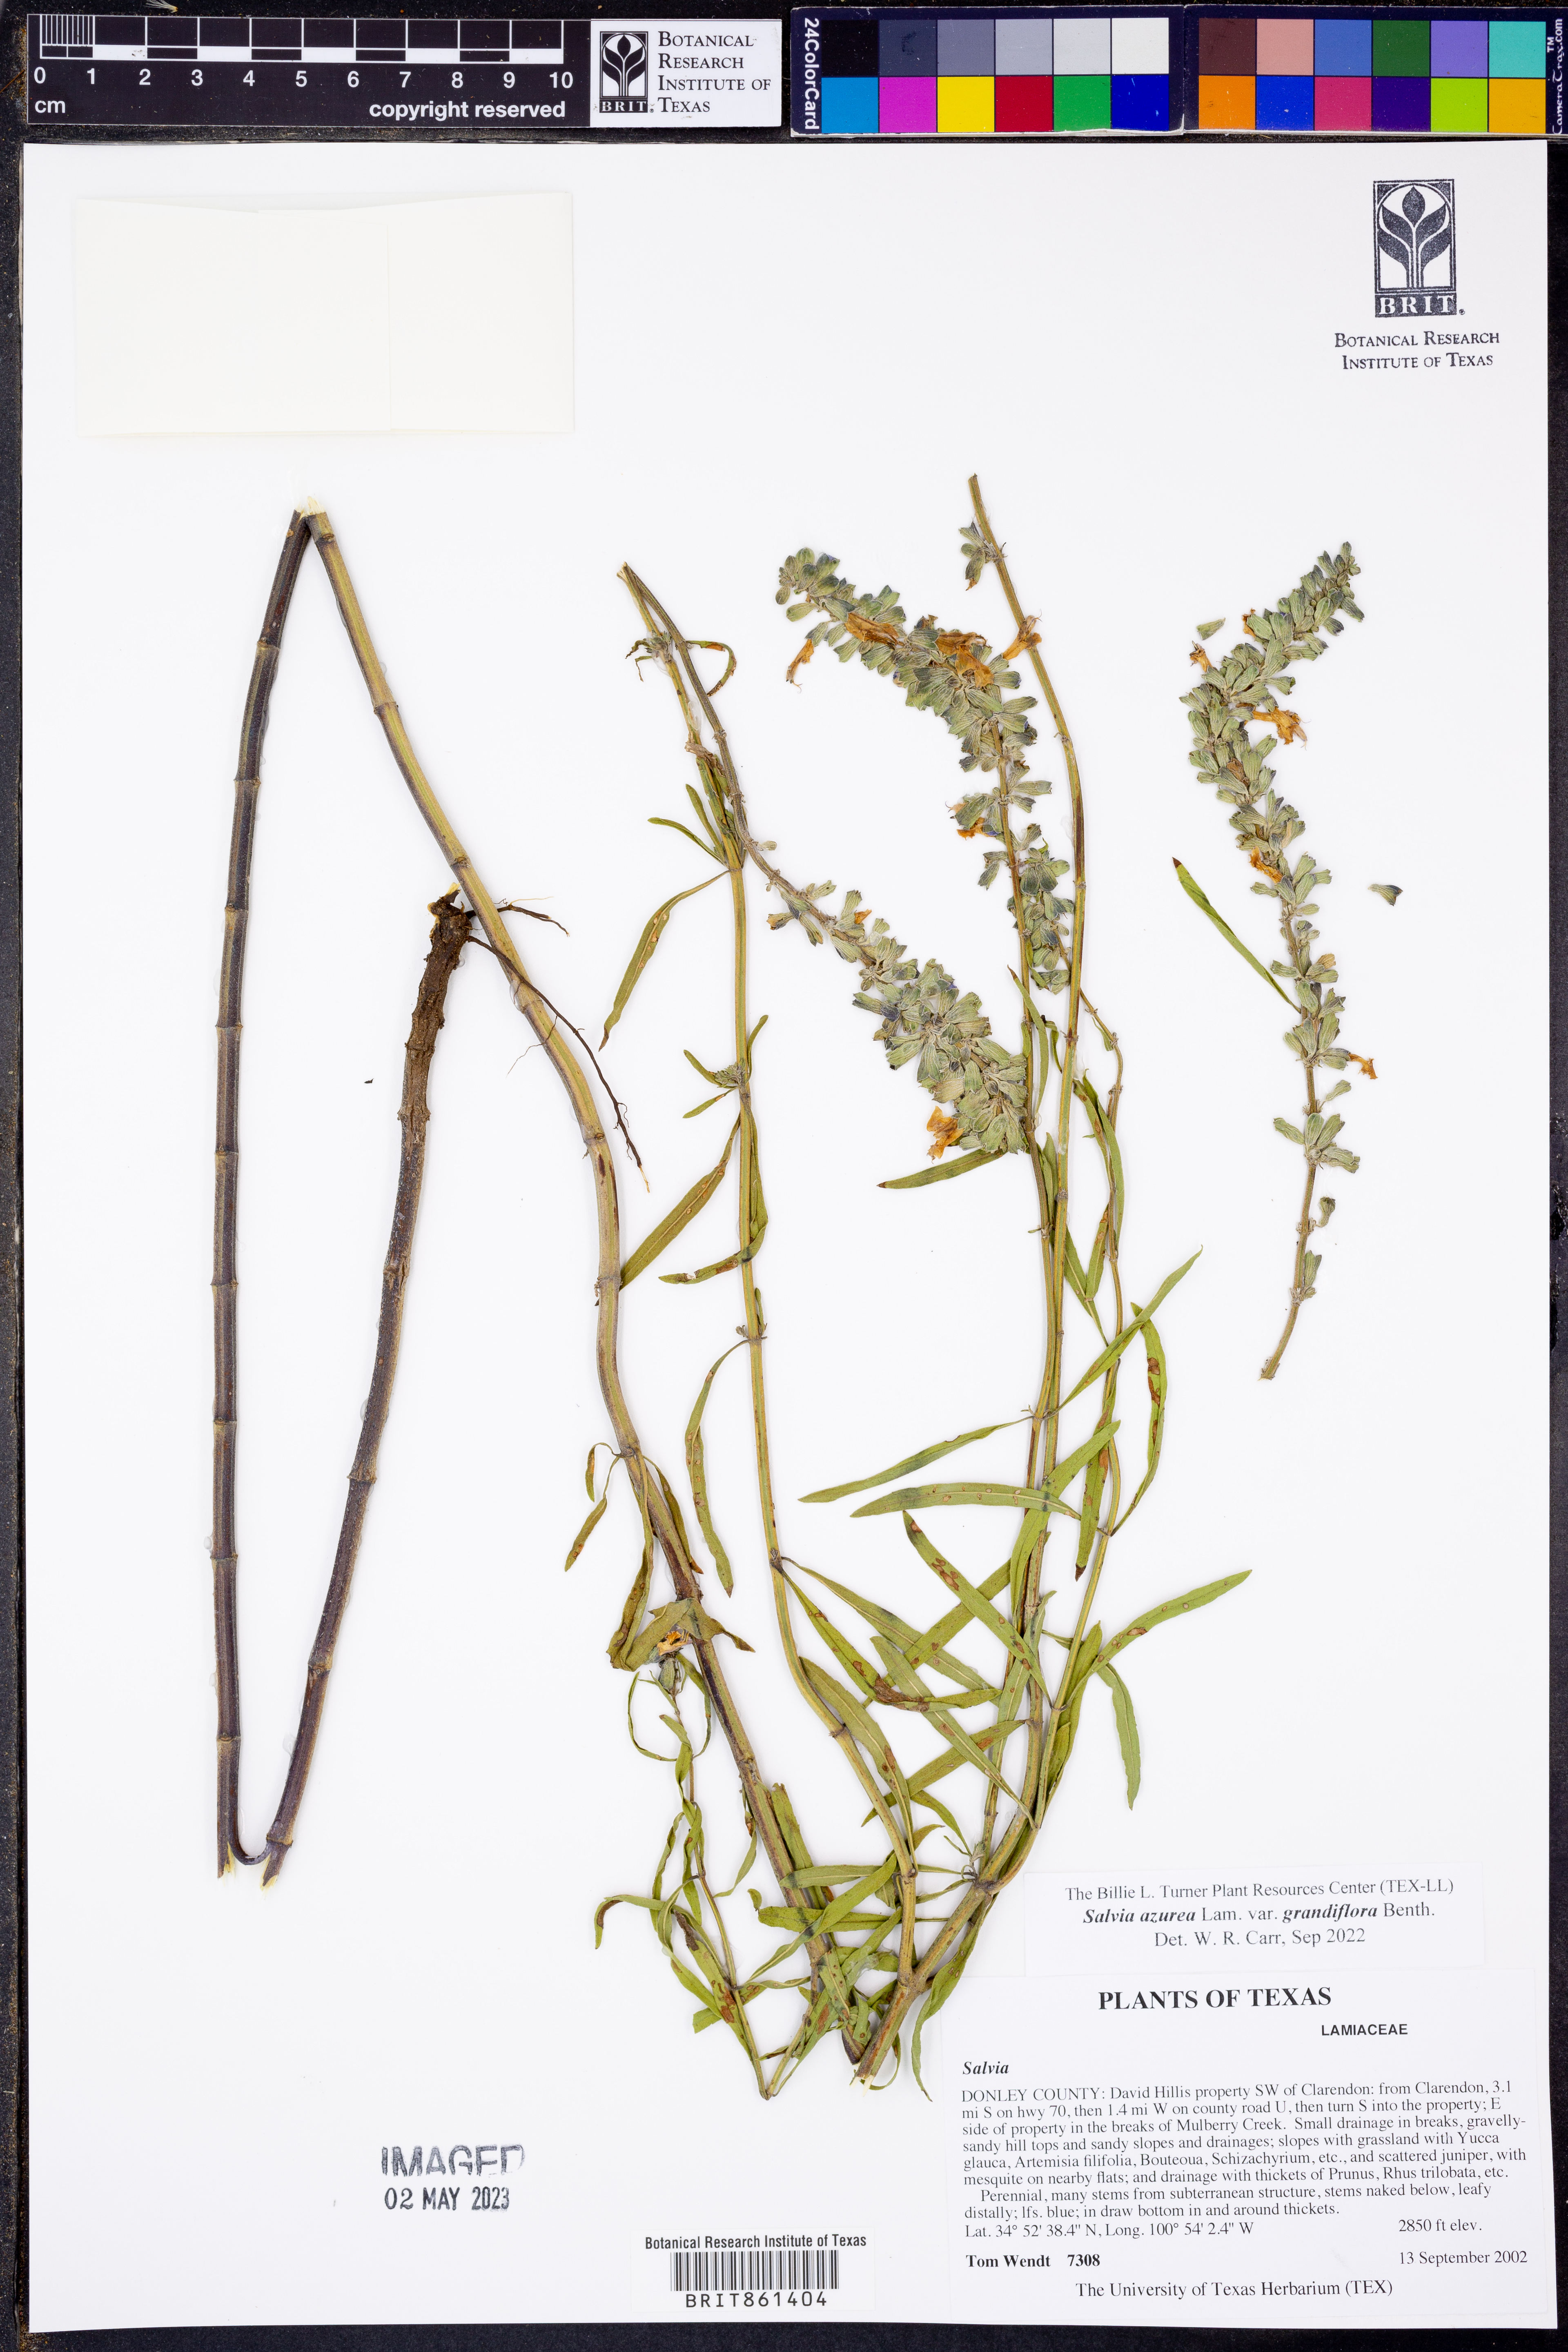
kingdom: Plantae
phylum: Tracheophyta
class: Magnoliopsida
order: Lamiales
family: Lamiaceae
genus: Salvia
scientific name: Salvia azurea
